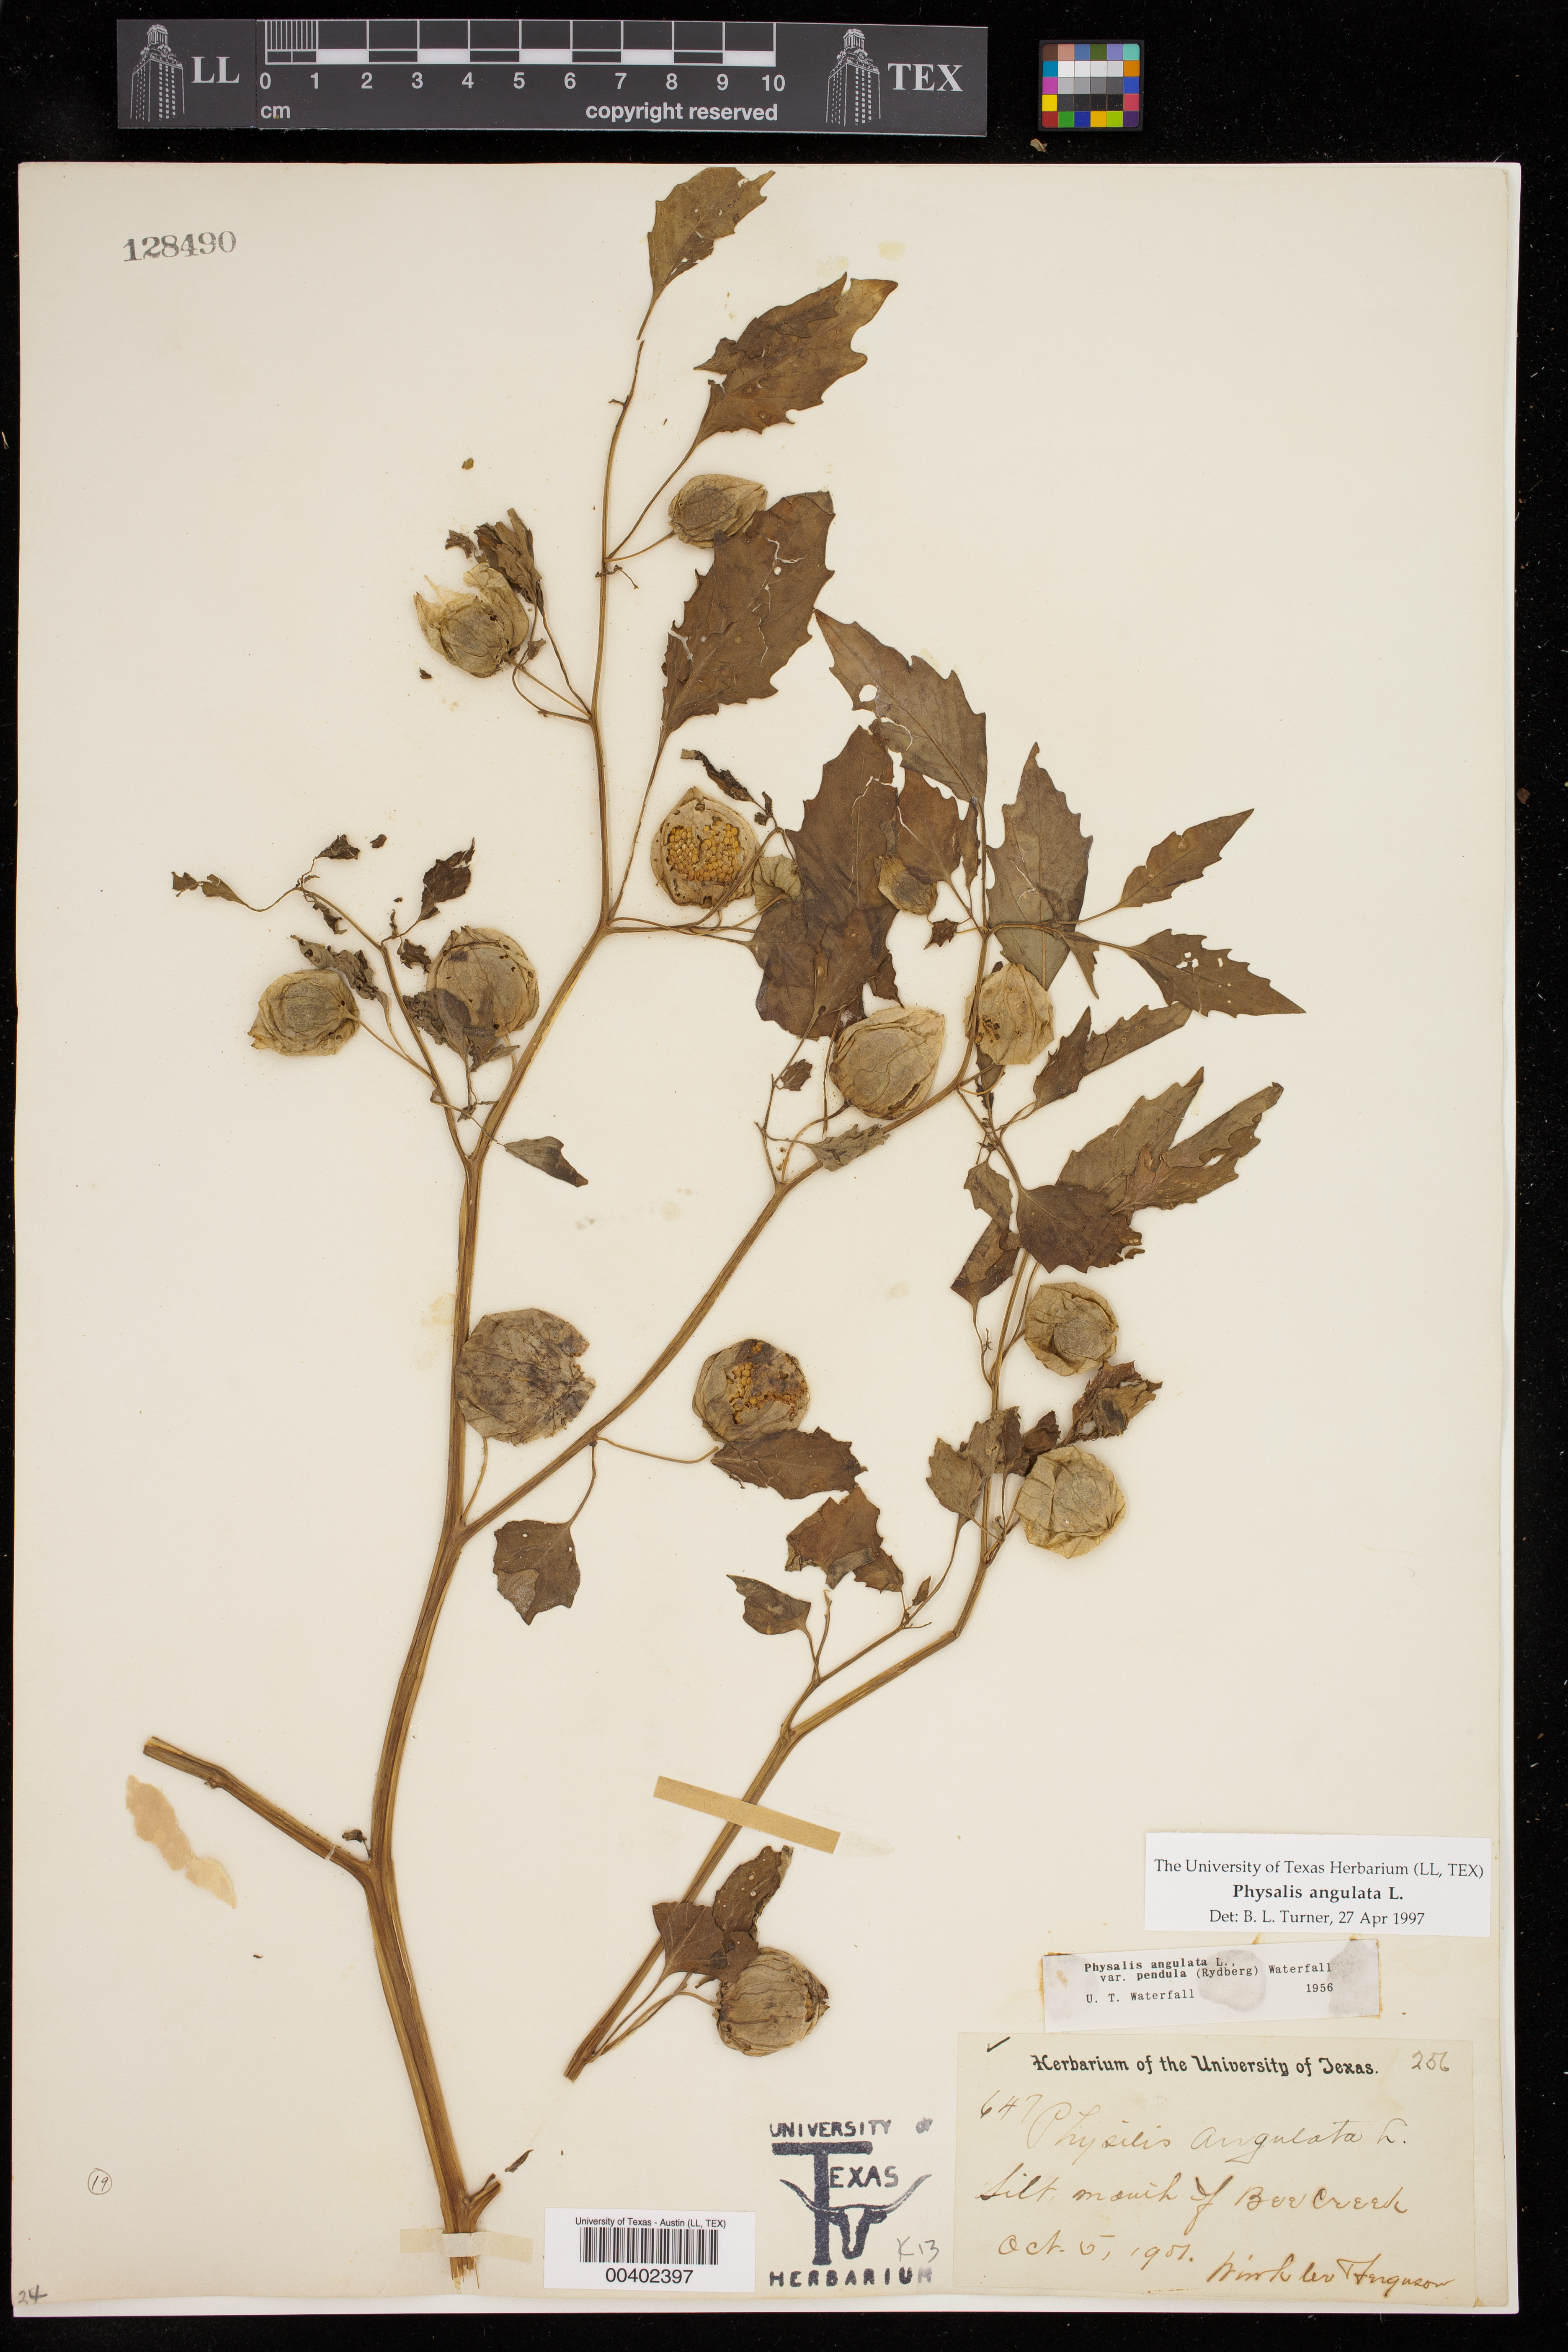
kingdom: Plantae
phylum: Tracheophyta
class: Magnoliopsida
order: Solanales
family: Solanaceae
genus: Physalis
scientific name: Physalis angulata
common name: Angular winter-cherry
